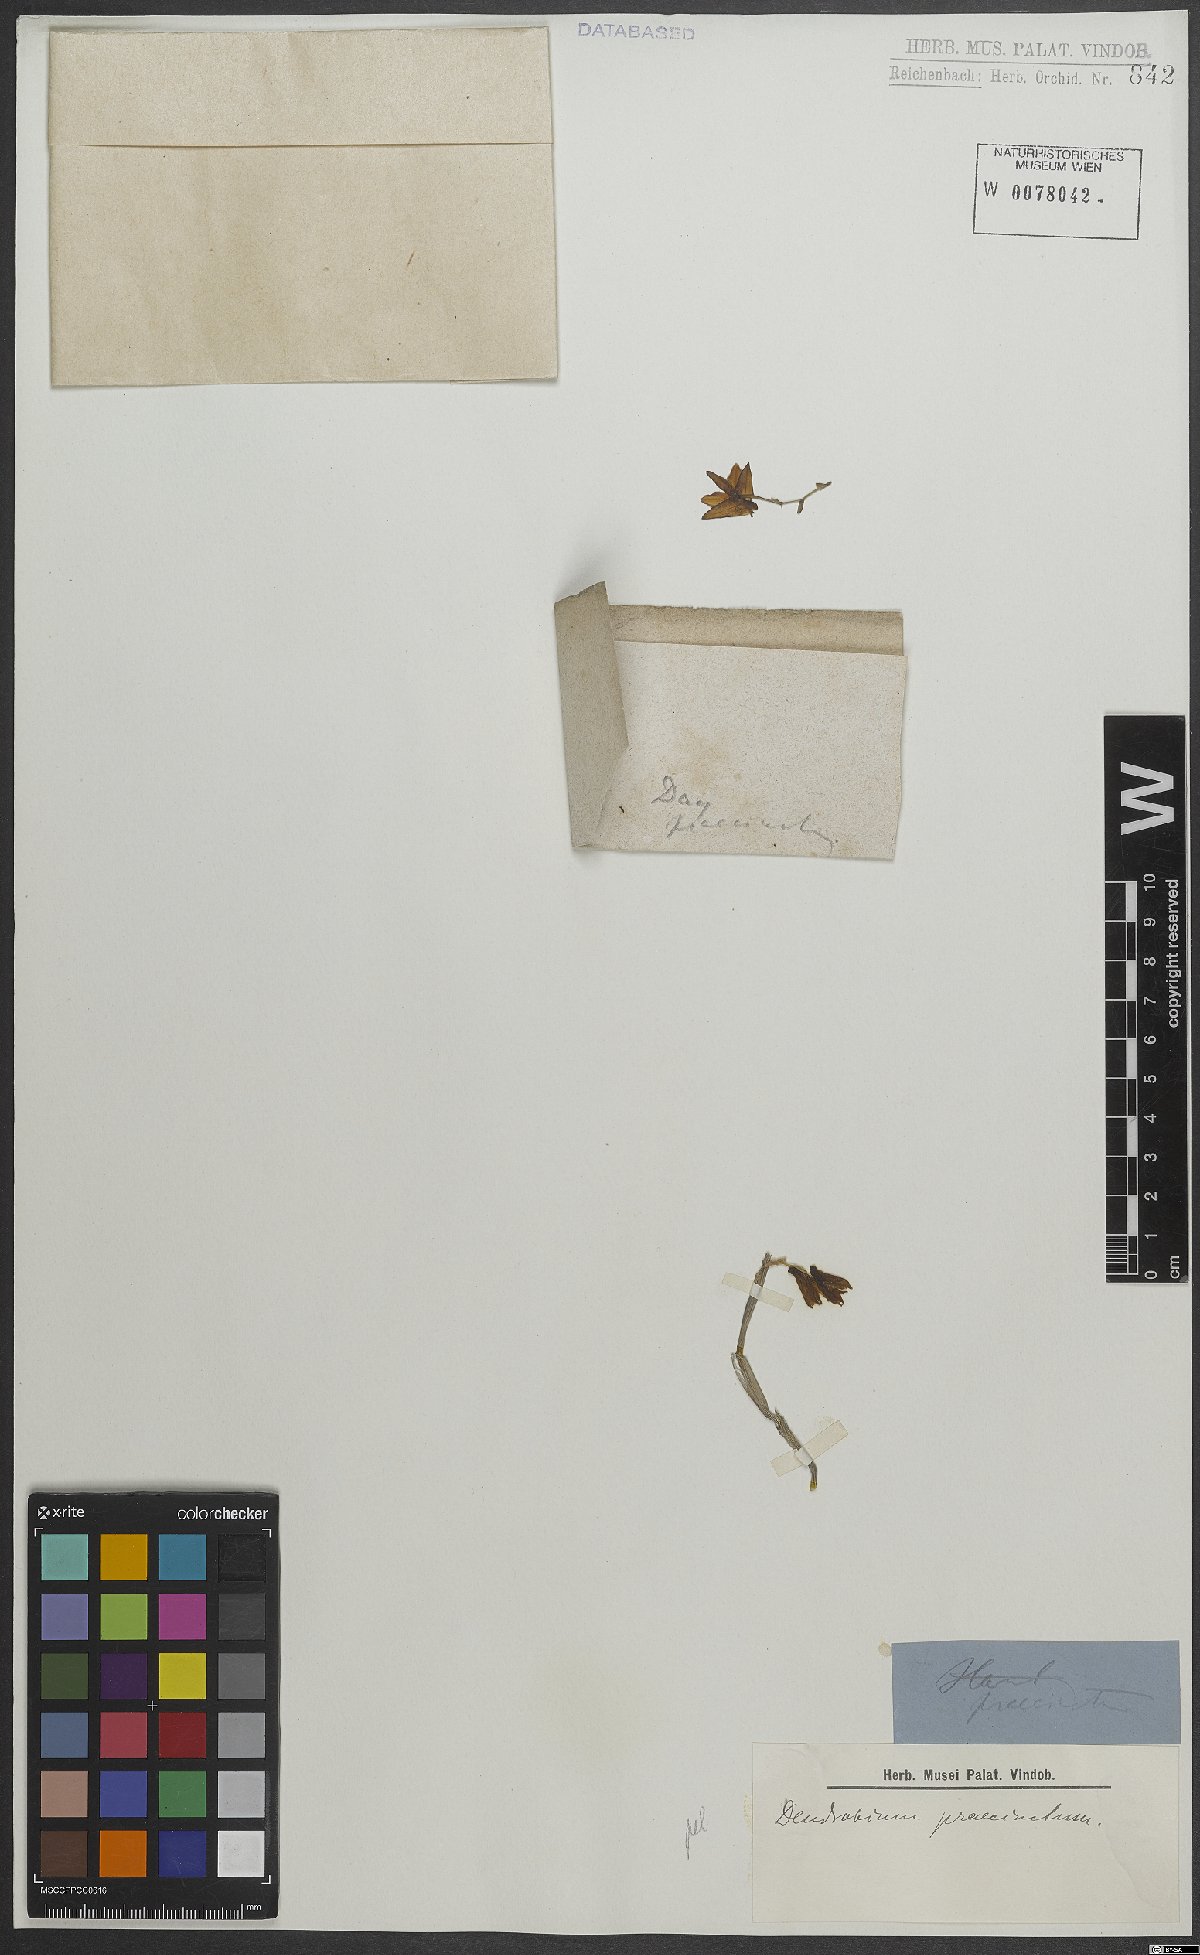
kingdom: Plantae
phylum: Tracheophyta
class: Liliopsida
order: Asparagales
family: Orchidaceae
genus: Dendrobium
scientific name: Dendrobium praecinctum
